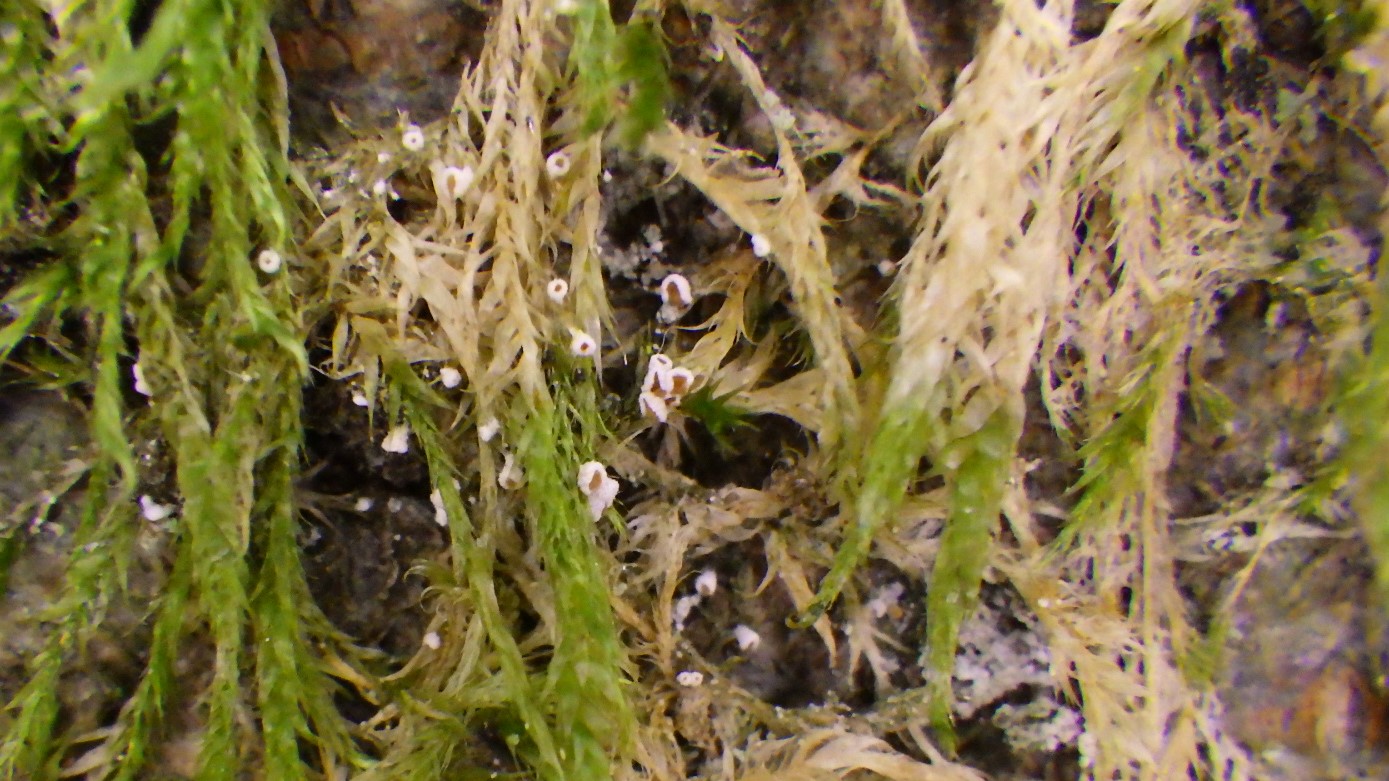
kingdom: Fungi
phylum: Basidiomycota
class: Agaricomycetes
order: Agaricales
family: Chromocyphellaceae
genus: Chromocyphella
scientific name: Chromocyphella muscicola
